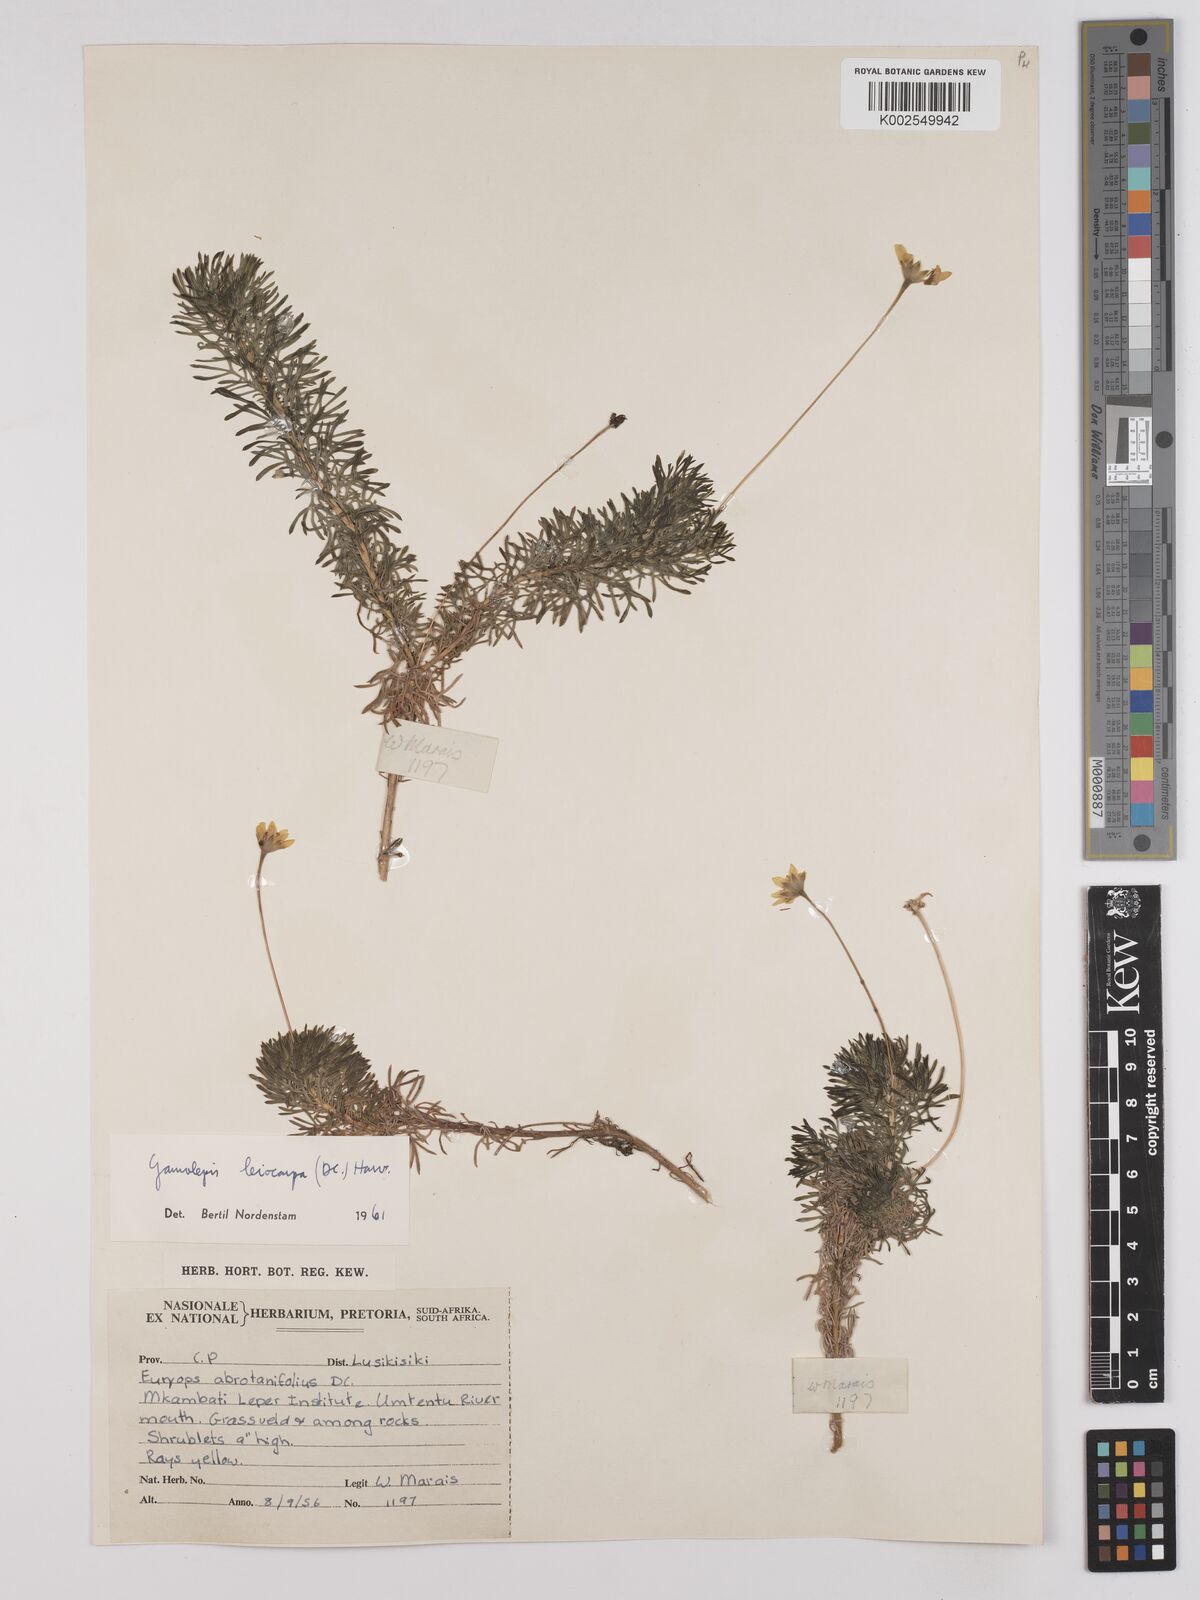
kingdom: Plantae
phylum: Tracheophyta
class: Magnoliopsida
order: Asterales
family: Asteraceae
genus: Euryops
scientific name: Euryops leiocarpus
